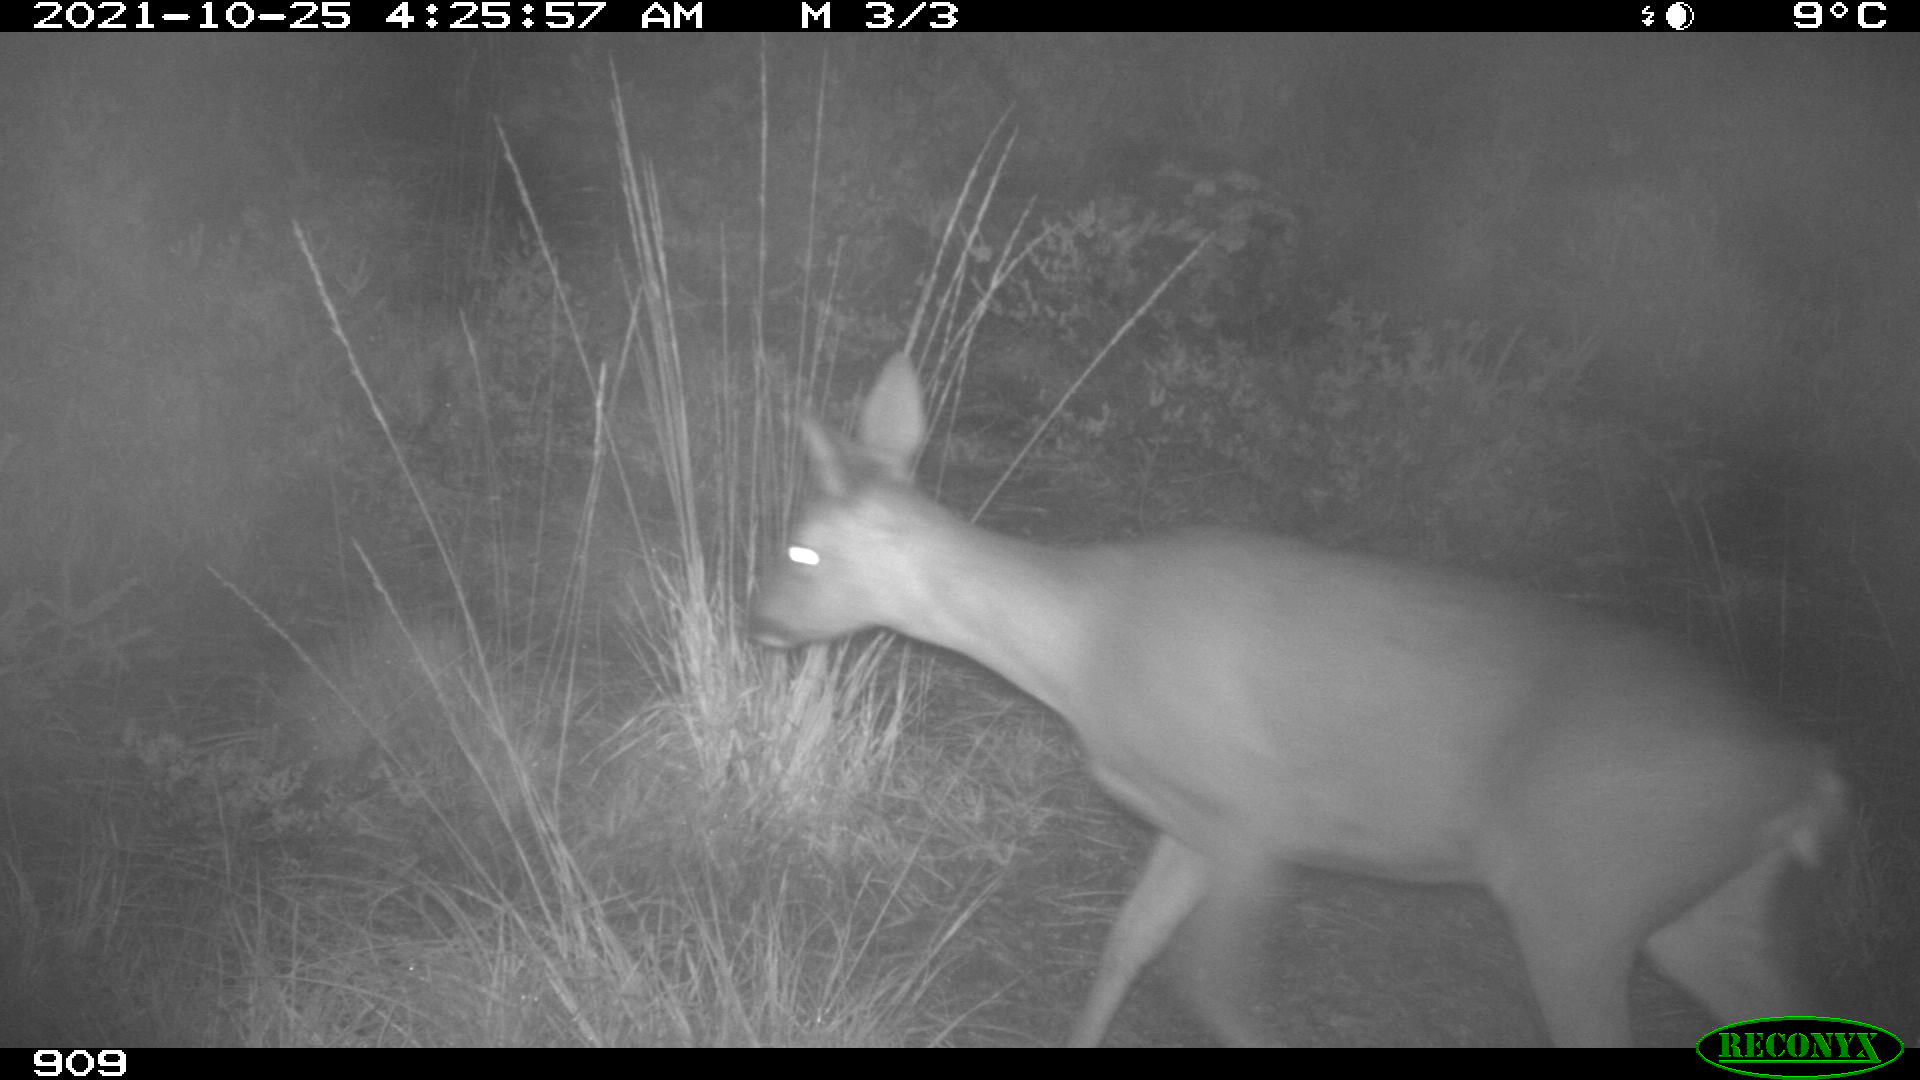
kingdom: Animalia
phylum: Chordata
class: Mammalia
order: Artiodactyla
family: Cervidae
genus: Capreolus
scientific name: Capreolus capreolus
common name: Western roe deer
